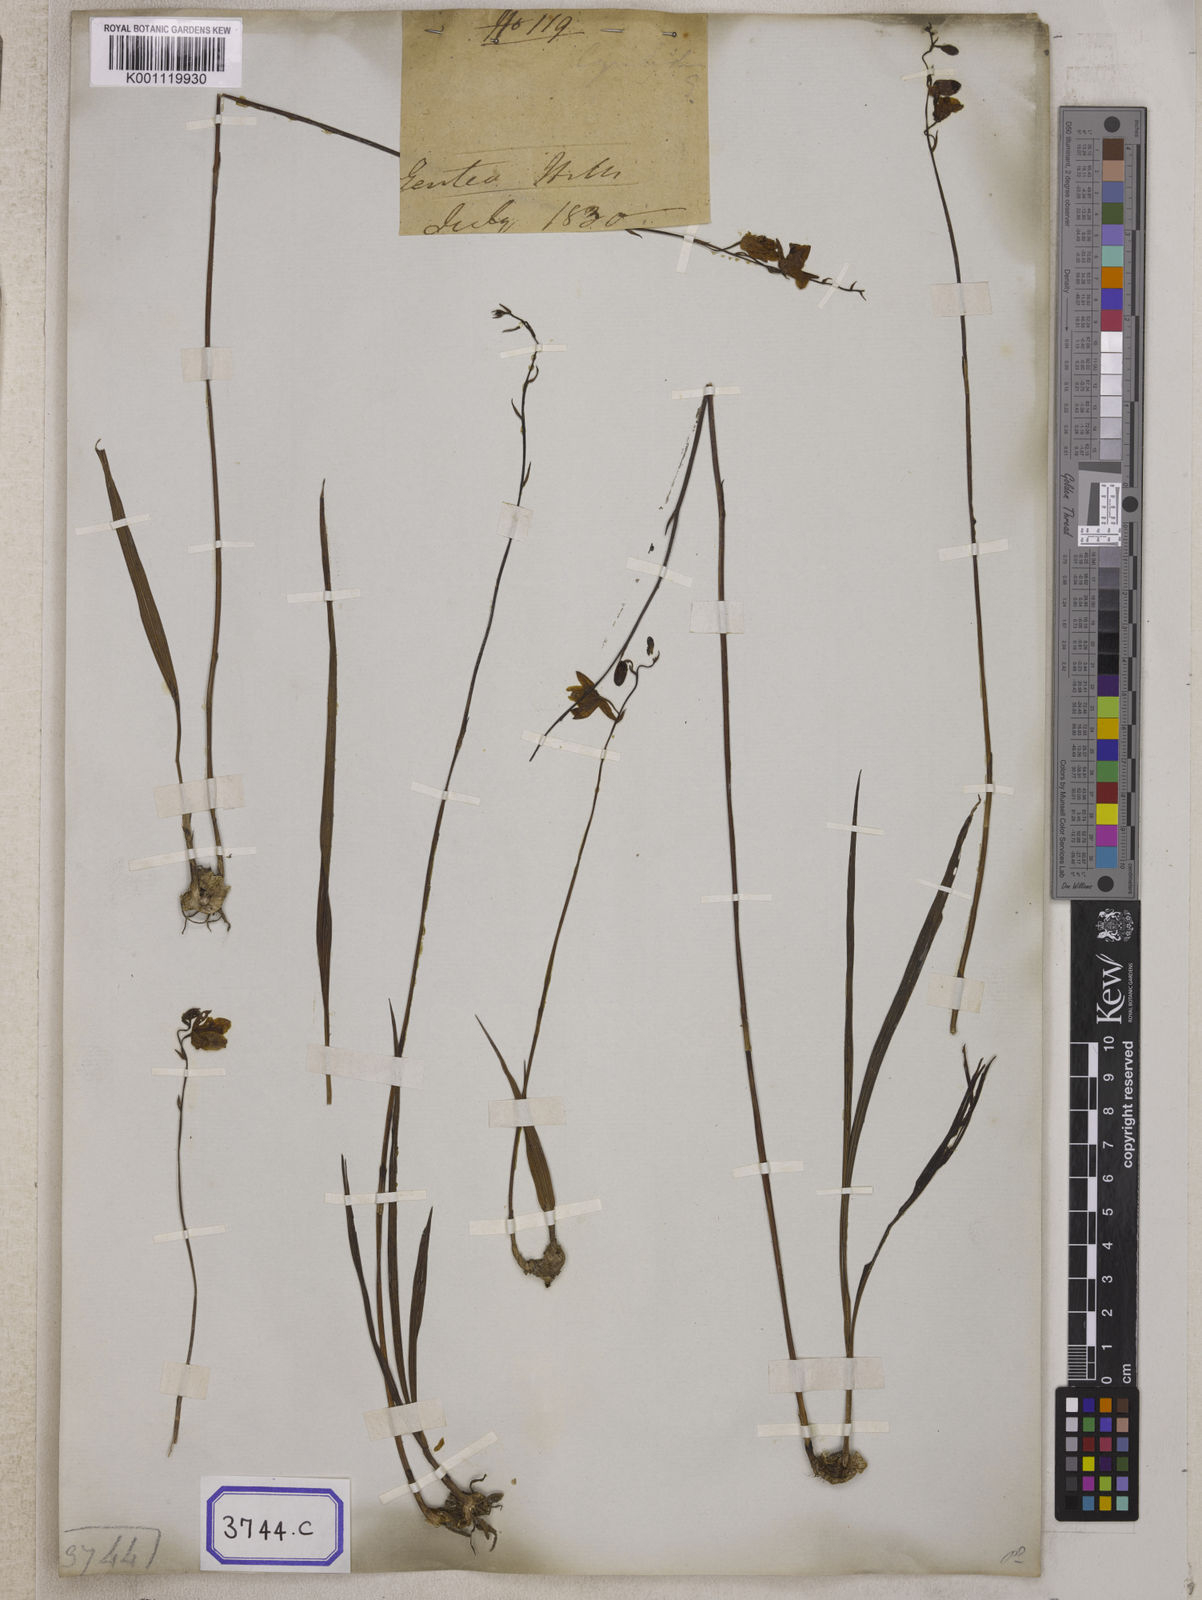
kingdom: Plantae
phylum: Tracheophyta
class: Liliopsida
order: Asparagales
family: Orchidaceae
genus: Spathoglottis
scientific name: Spathoglottis pubescens
